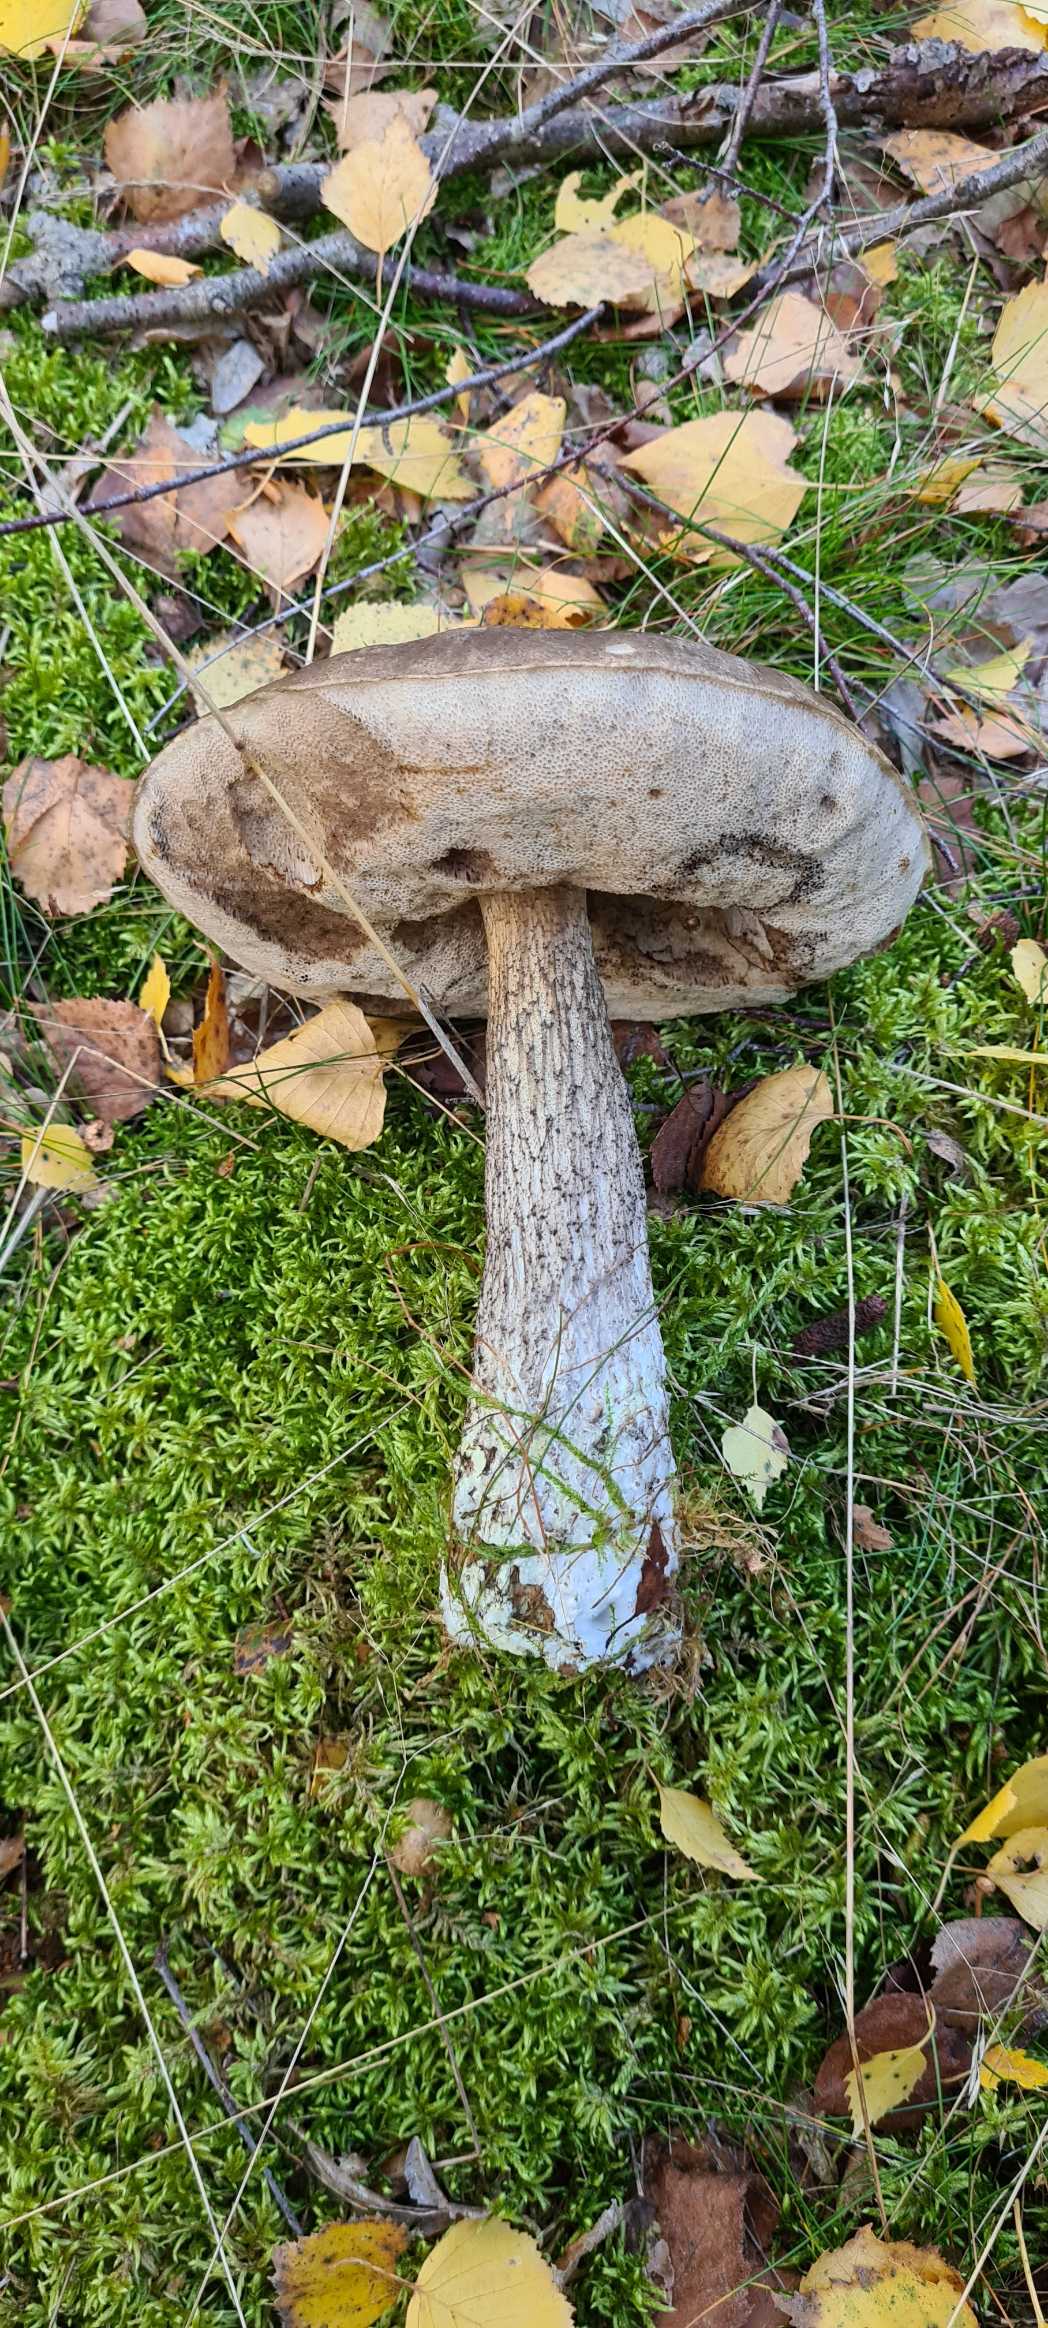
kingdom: Fungi
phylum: Basidiomycota
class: Agaricomycetes
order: Boletales
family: Boletaceae
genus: Leccinum
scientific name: Leccinum scabrum
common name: Brun skælrørhat
